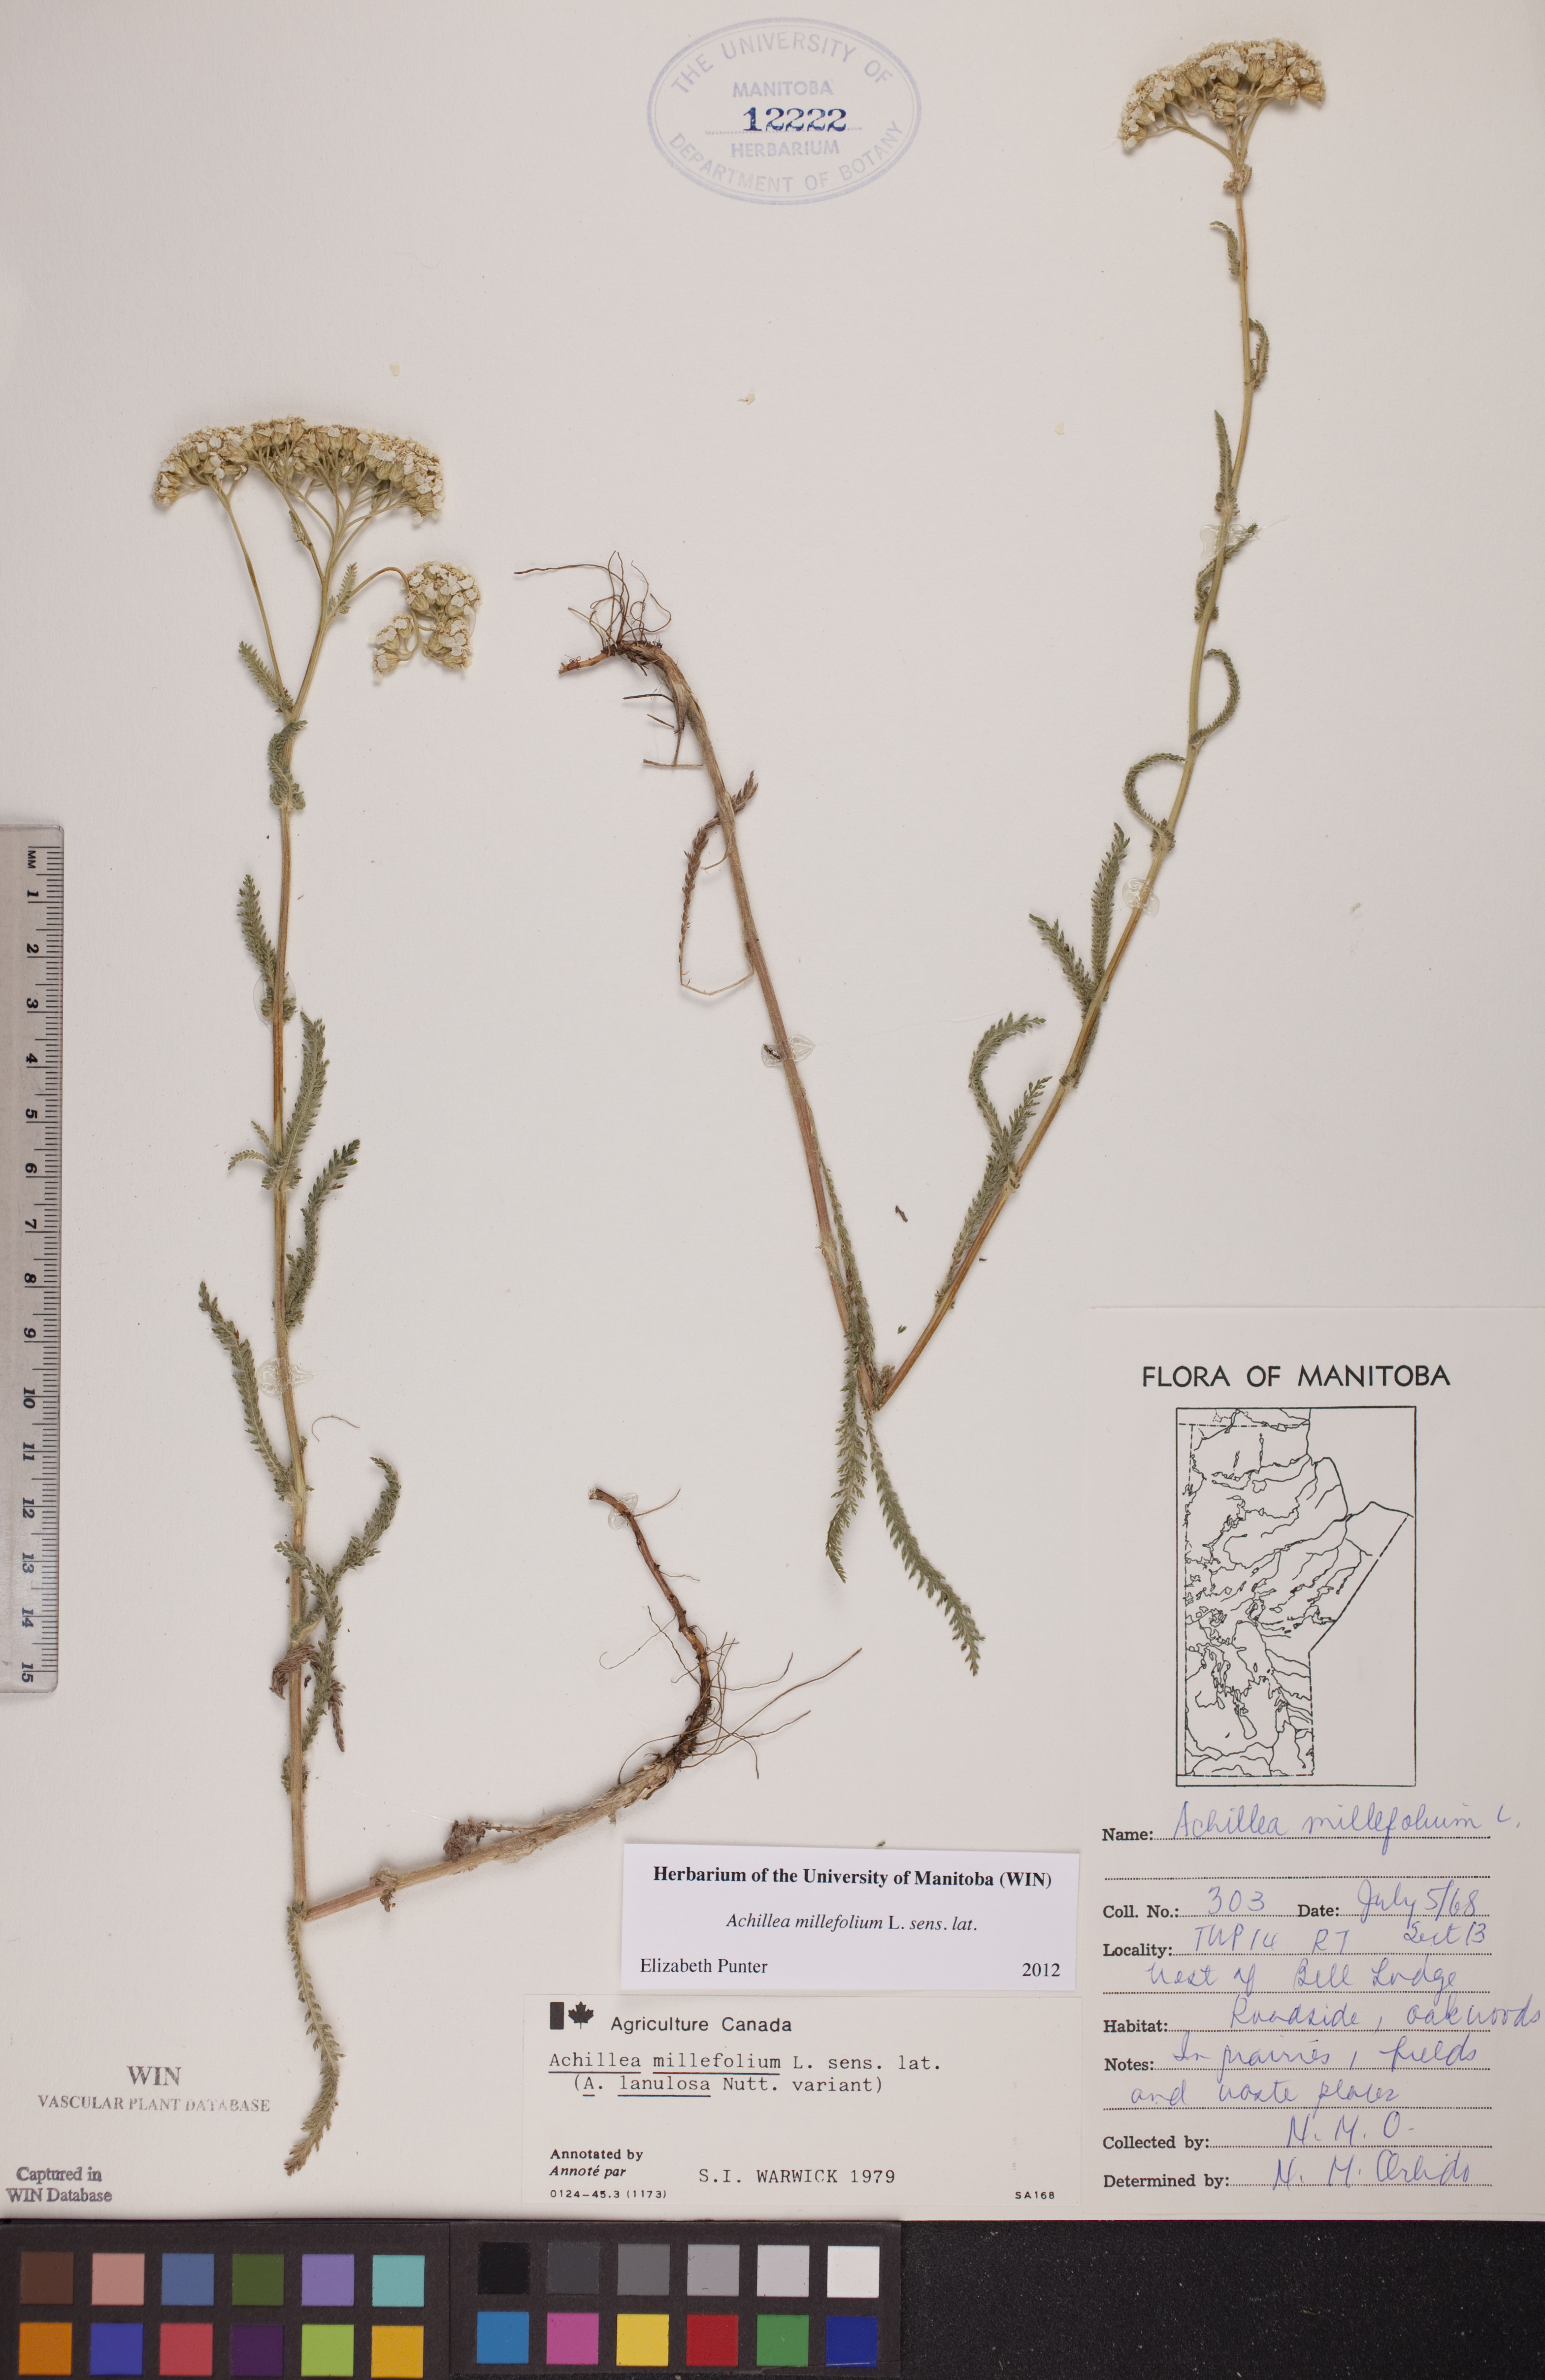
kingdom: Plantae
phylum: Tracheophyta
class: Magnoliopsida
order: Asterales
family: Asteraceae
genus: Achillea
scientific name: Achillea millefolium
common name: Yarrow
